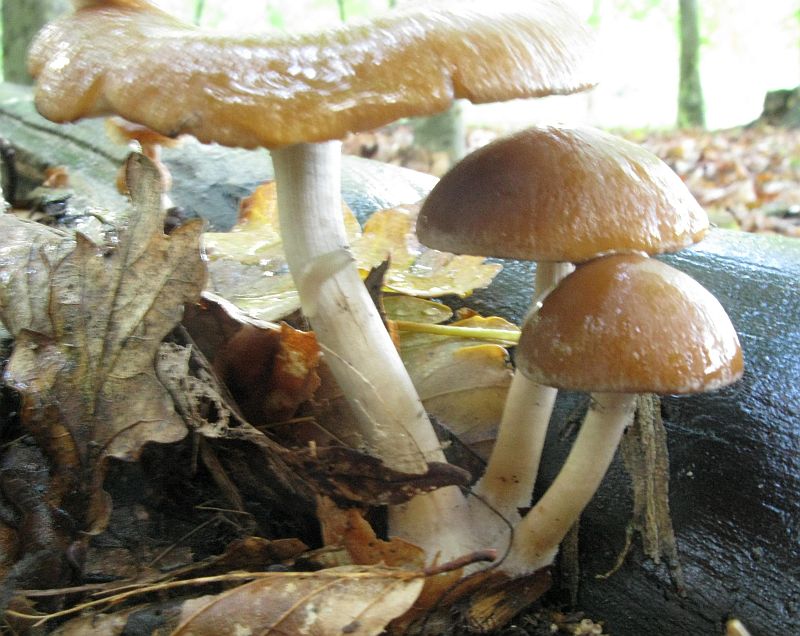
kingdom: Fungi
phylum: Basidiomycota
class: Agaricomycetes
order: Agaricales
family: Psathyrellaceae
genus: Psathyrella
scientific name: Psathyrella piluliformis
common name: lysstokket mørkhat
